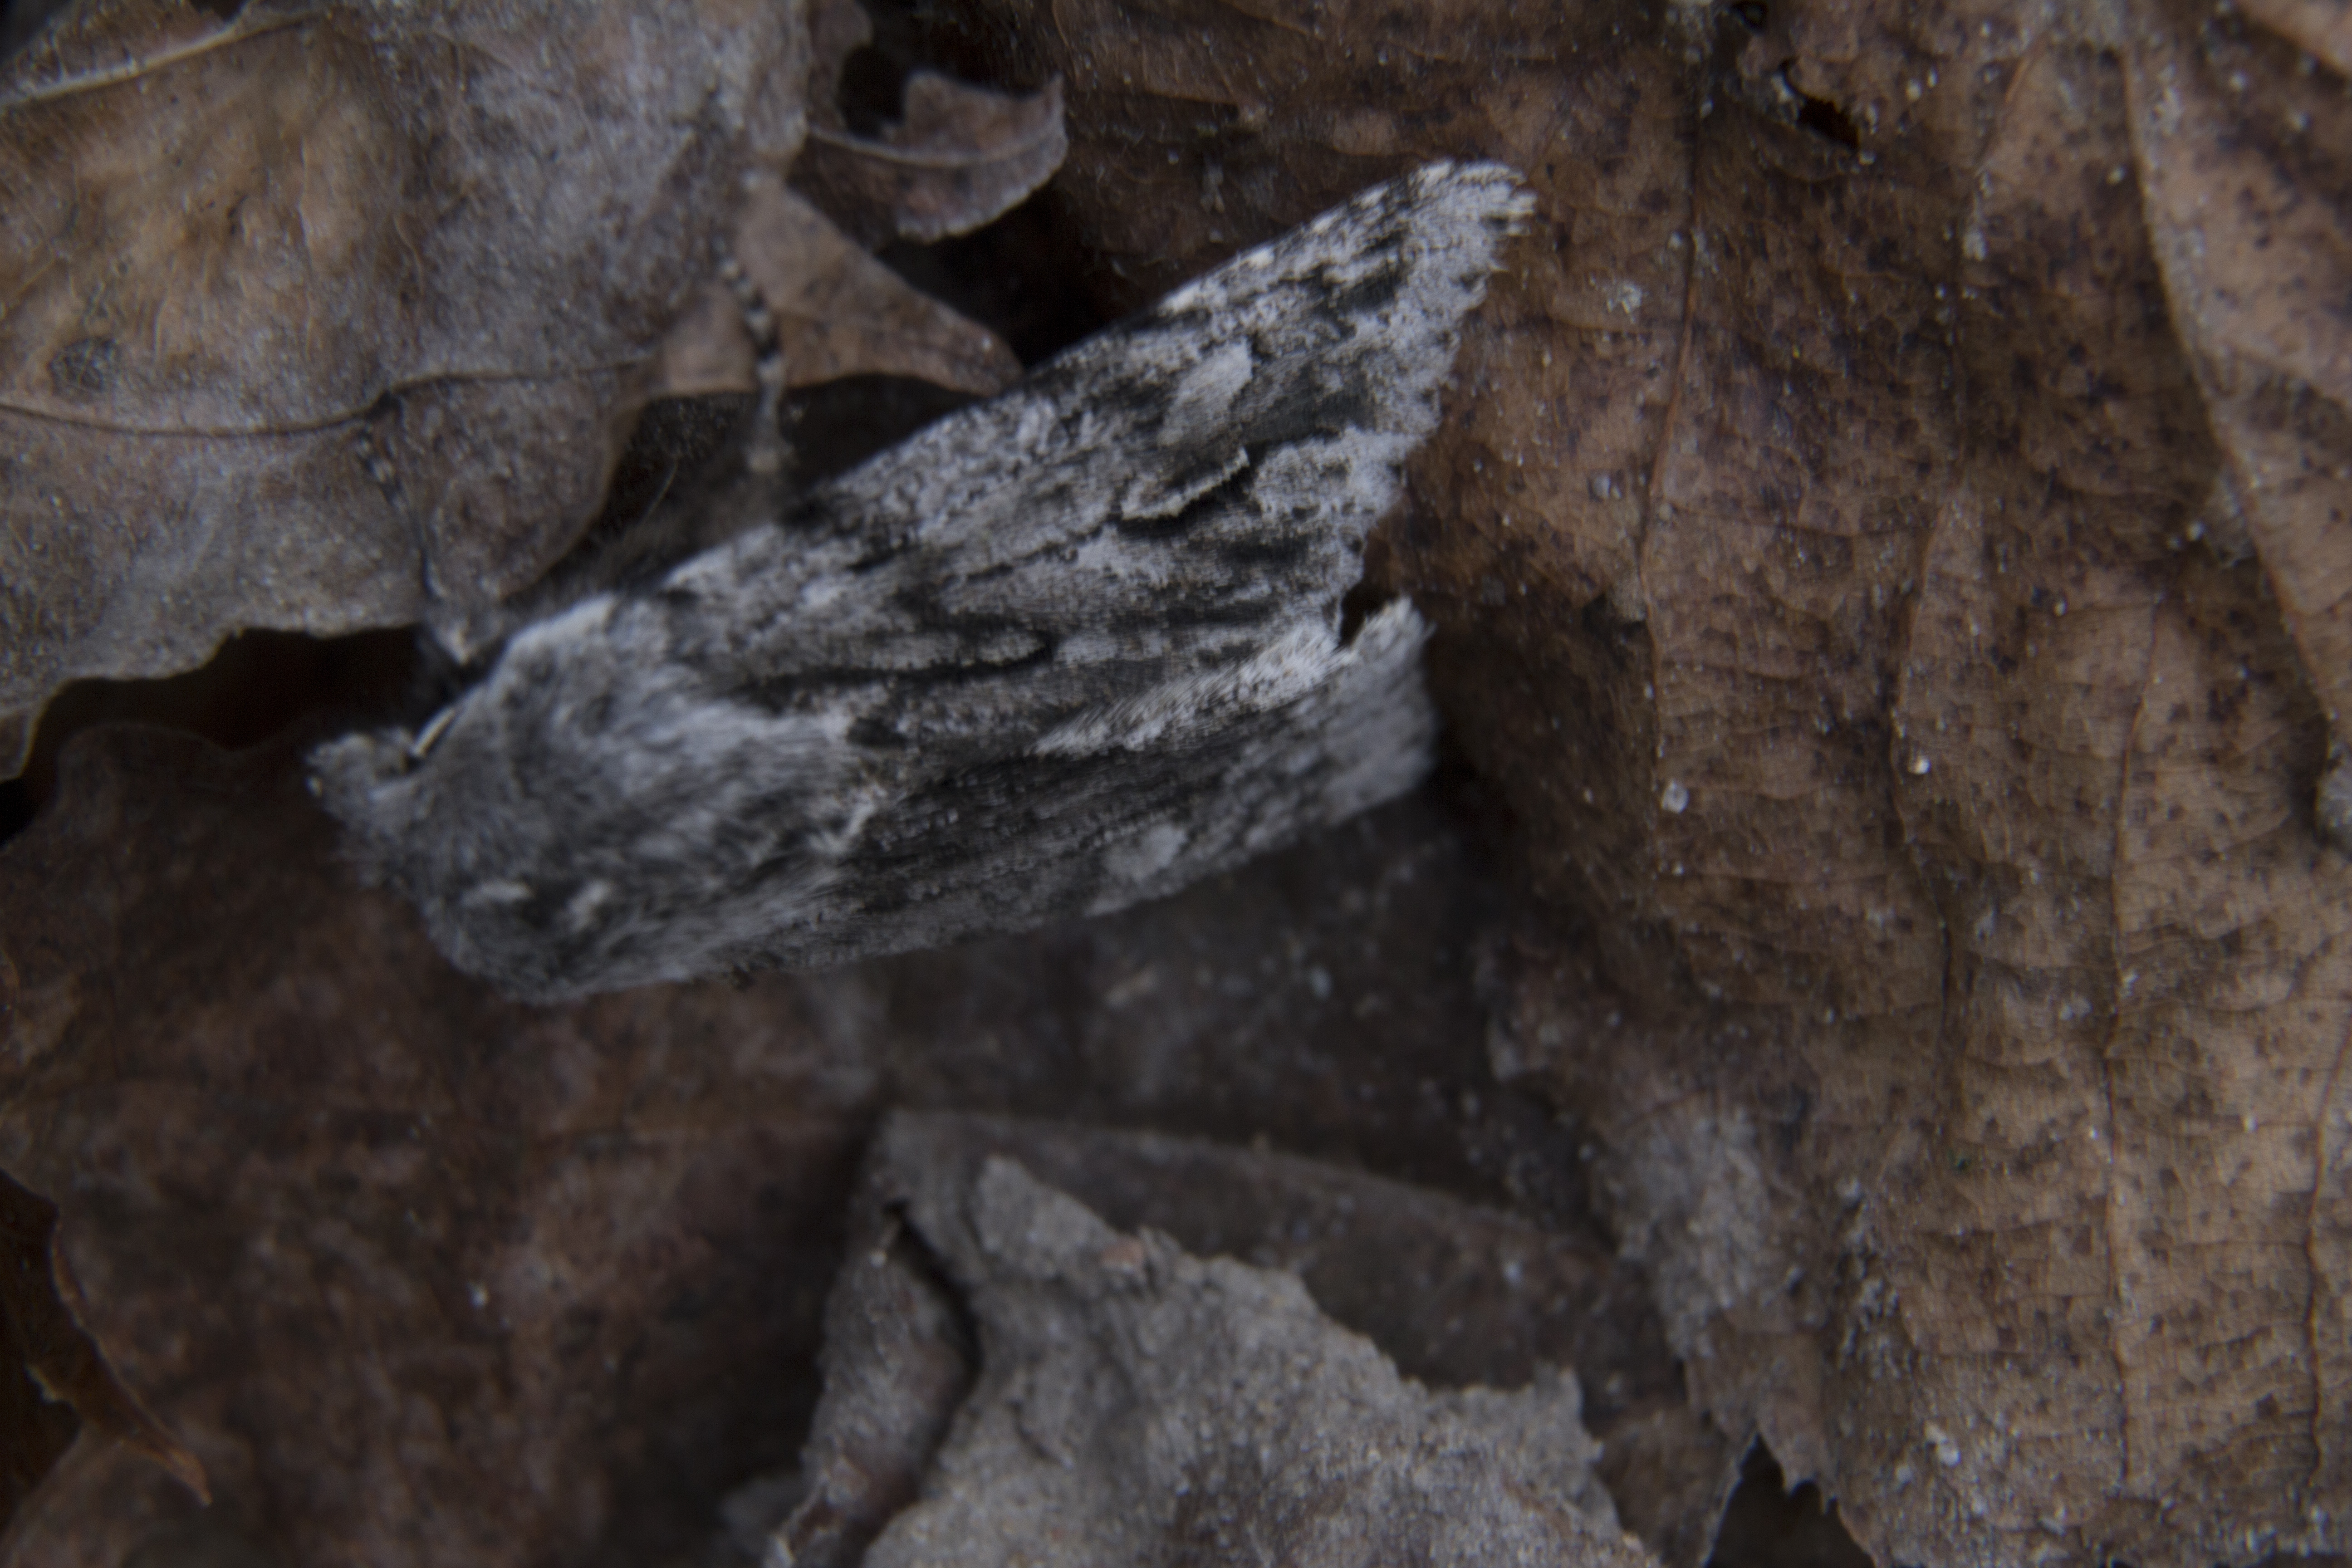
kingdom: Animalia
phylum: Arthropoda
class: Insecta
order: Lepidoptera
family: Noctuidae
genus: Brachionycha
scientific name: Brachionycha nubeculosa
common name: Rannoch sprawler
